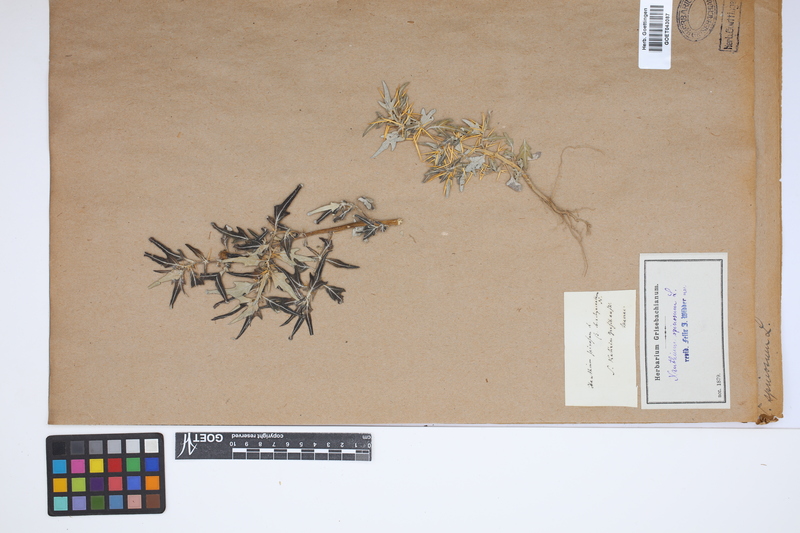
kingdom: Plantae
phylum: Tracheophyta
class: Magnoliopsida
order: Asterales
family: Asteraceae
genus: Xanthium
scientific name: Xanthium spinosum
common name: Spiny cocklebur
